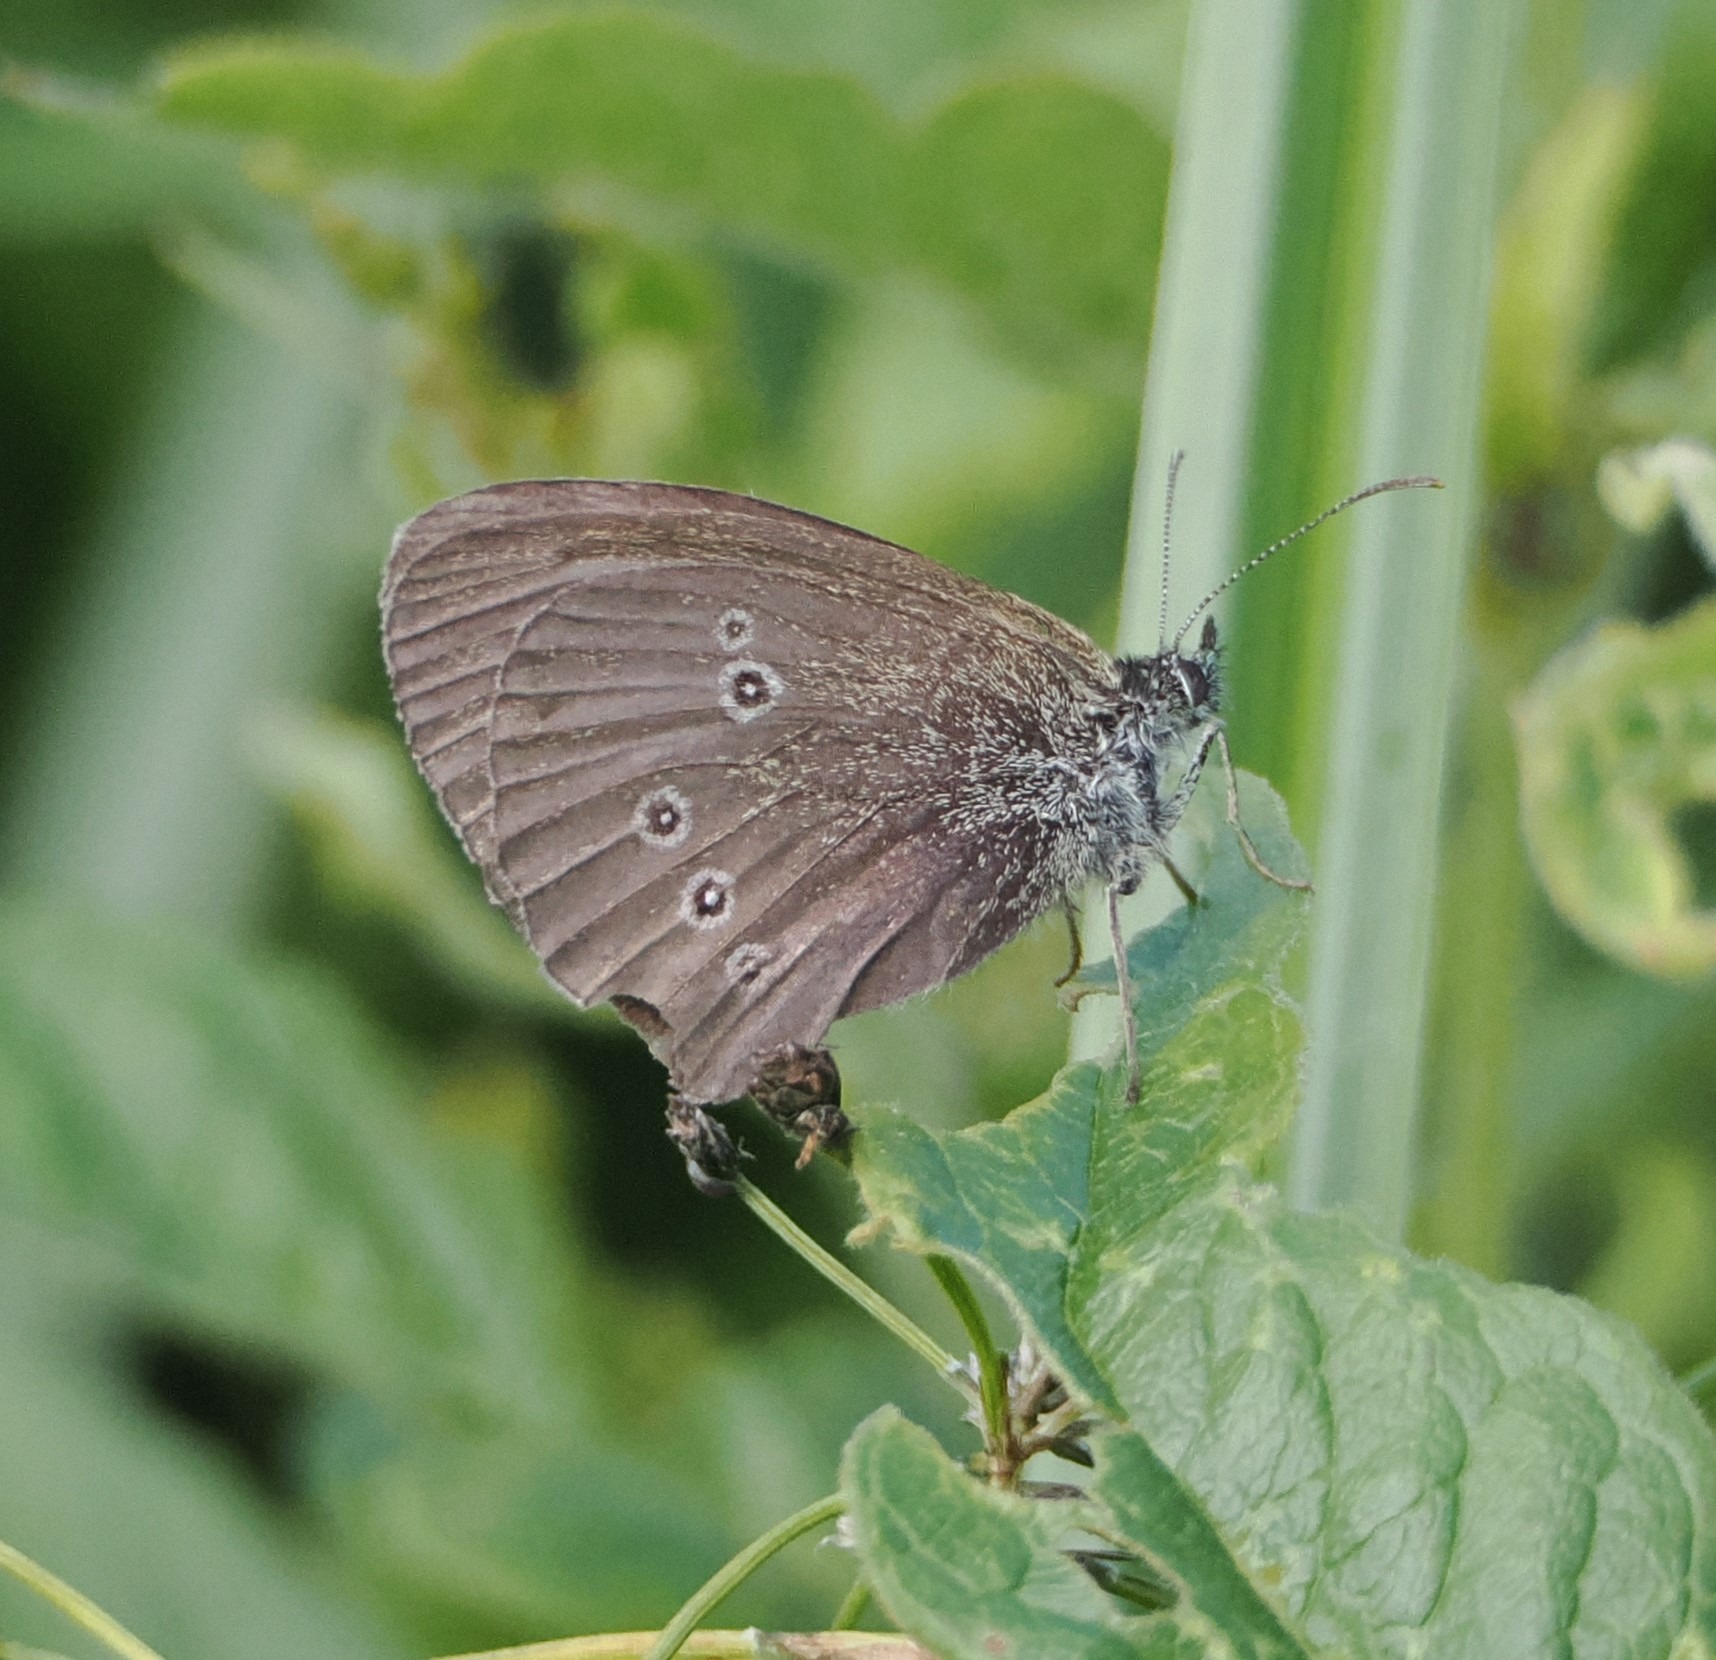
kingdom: Animalia
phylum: Arthropoda
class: Insecta
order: Lepidoptera
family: Nymphalidae
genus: Aphantopus
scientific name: Aphantopus hyperantus
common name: Engrandøje
